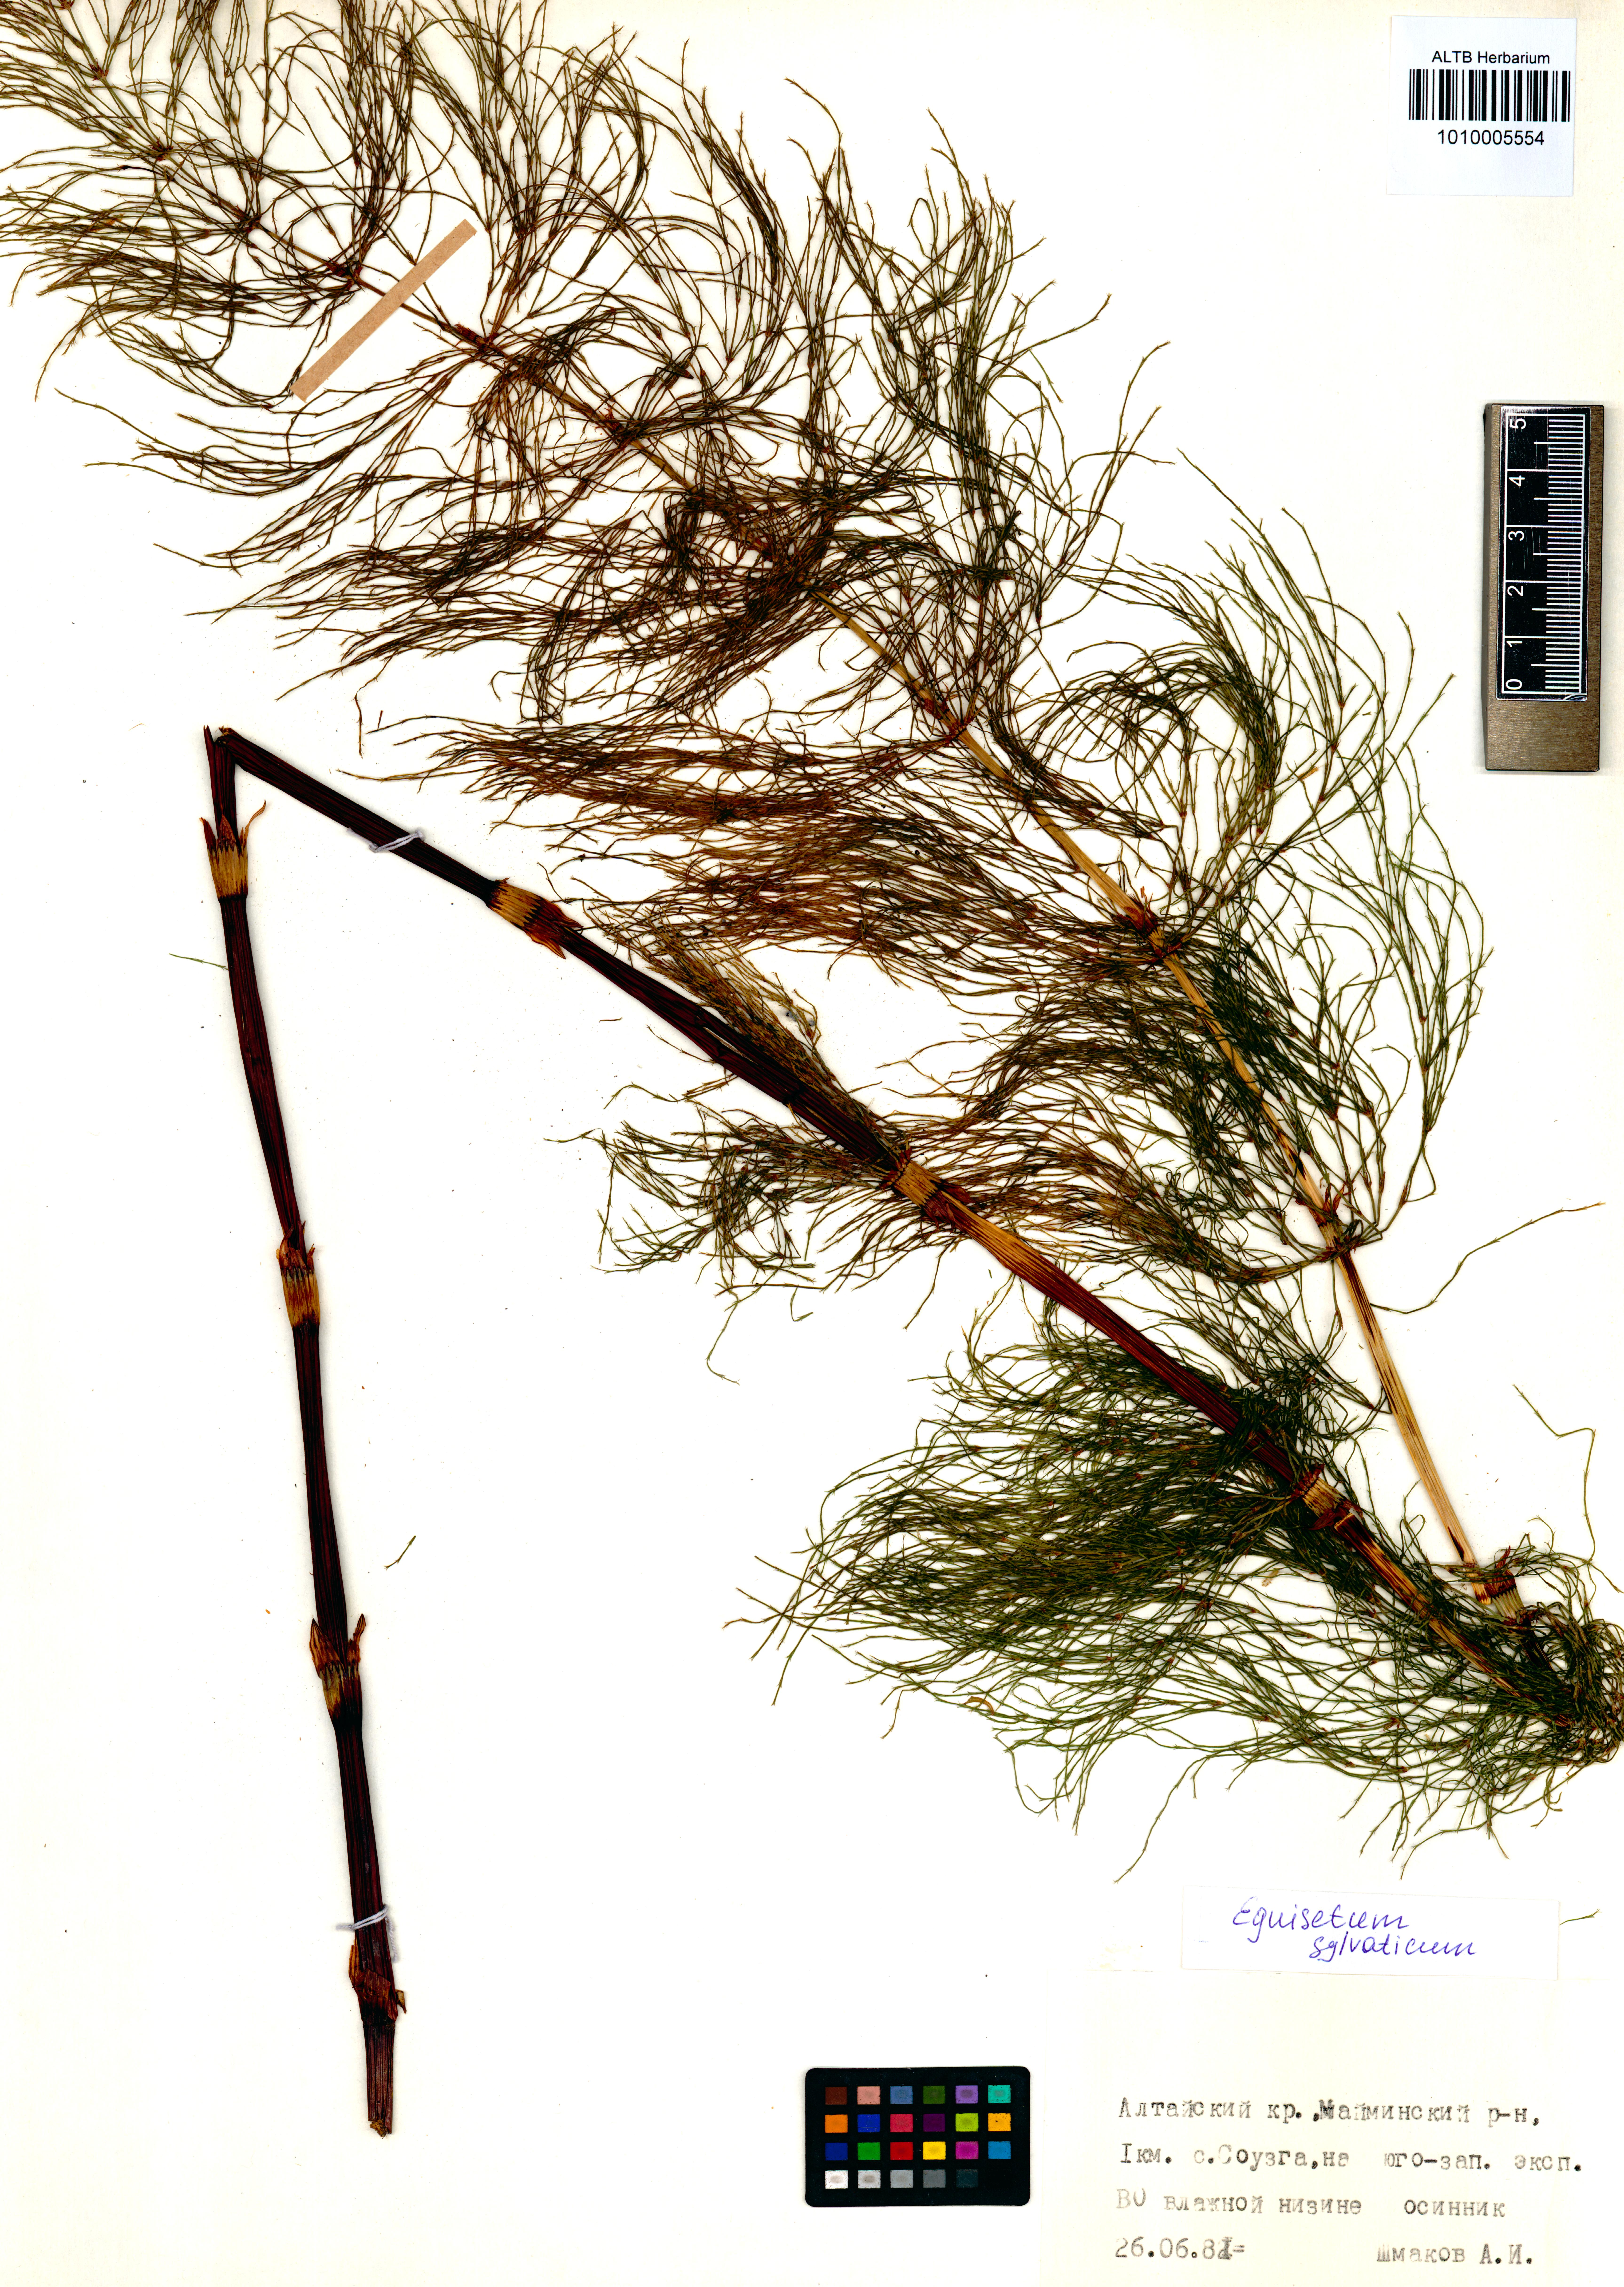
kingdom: Plantae
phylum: Tracheophyta
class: Polypodiopsida
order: Equisetales
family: Equisetaceae
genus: Equisetum
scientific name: Equisetum sylvaticum
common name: Wood horsetail
